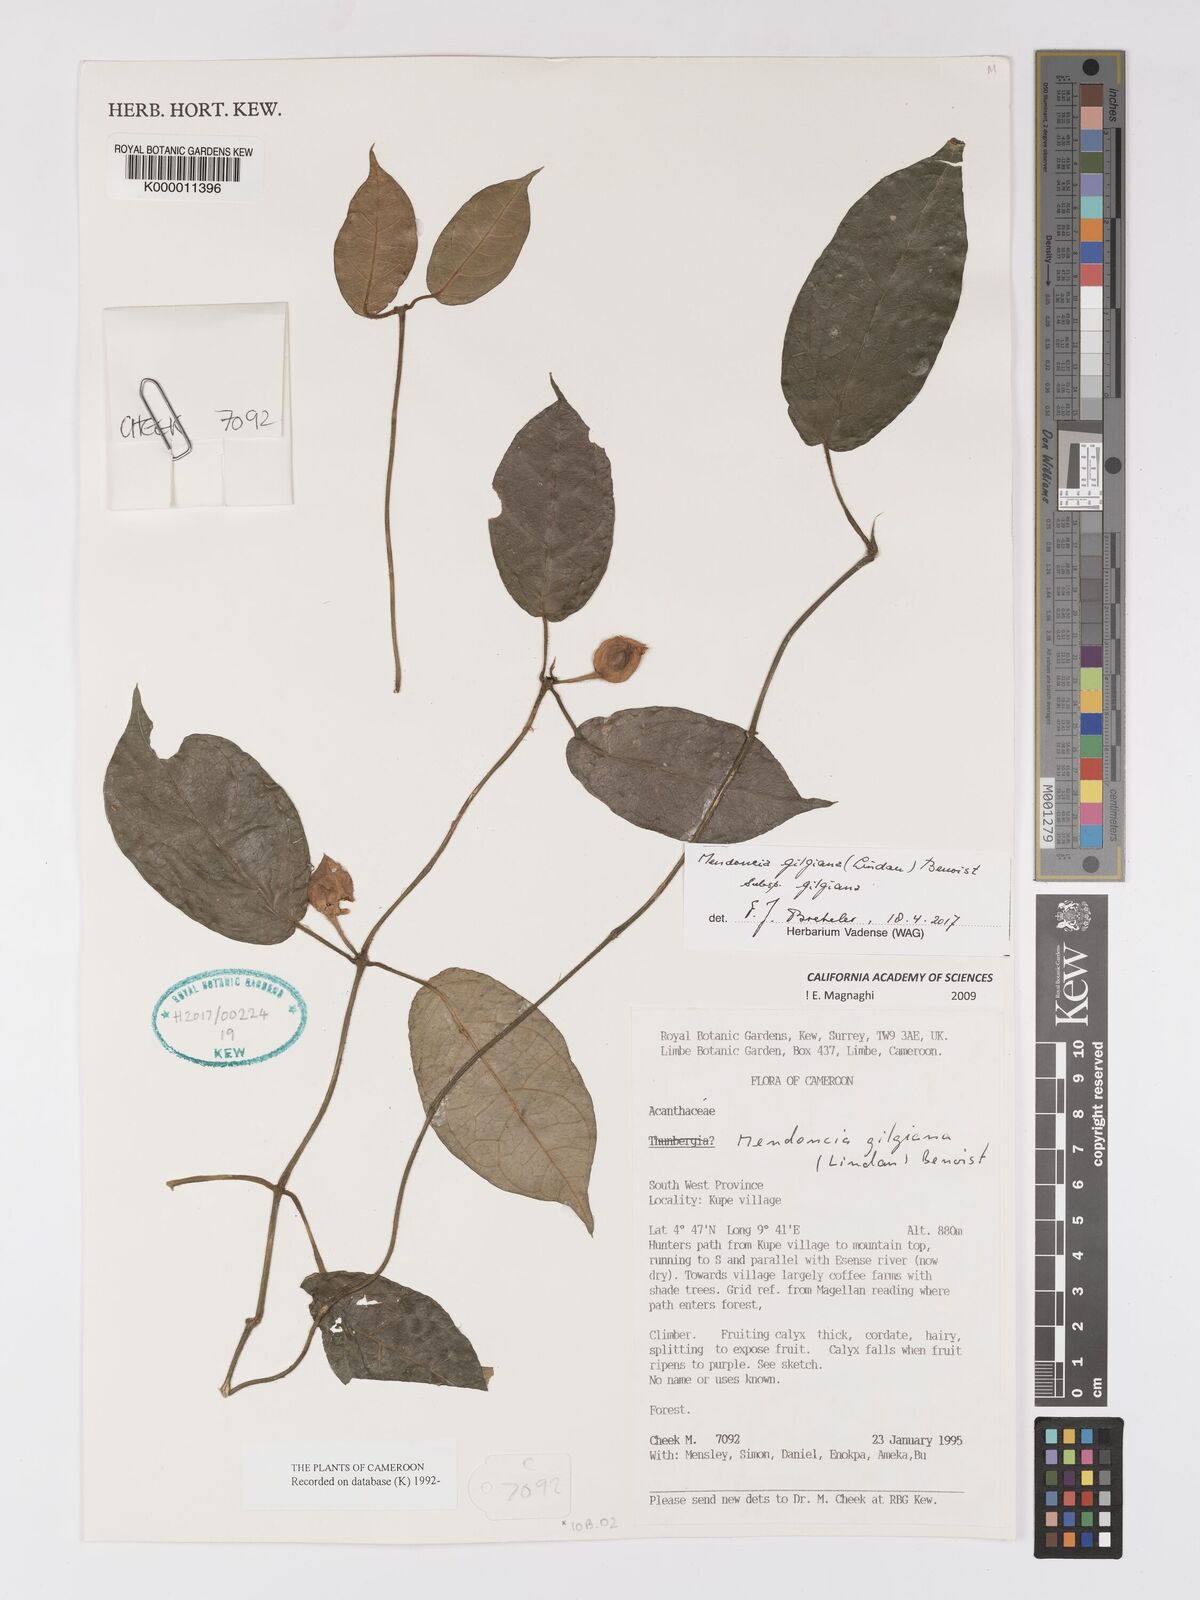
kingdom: Plantae
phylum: Tracheophyta
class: Magnoliopsida
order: Lamiales
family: Acanthaceae
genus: Mendoncia
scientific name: Mendoncia gilgiana
